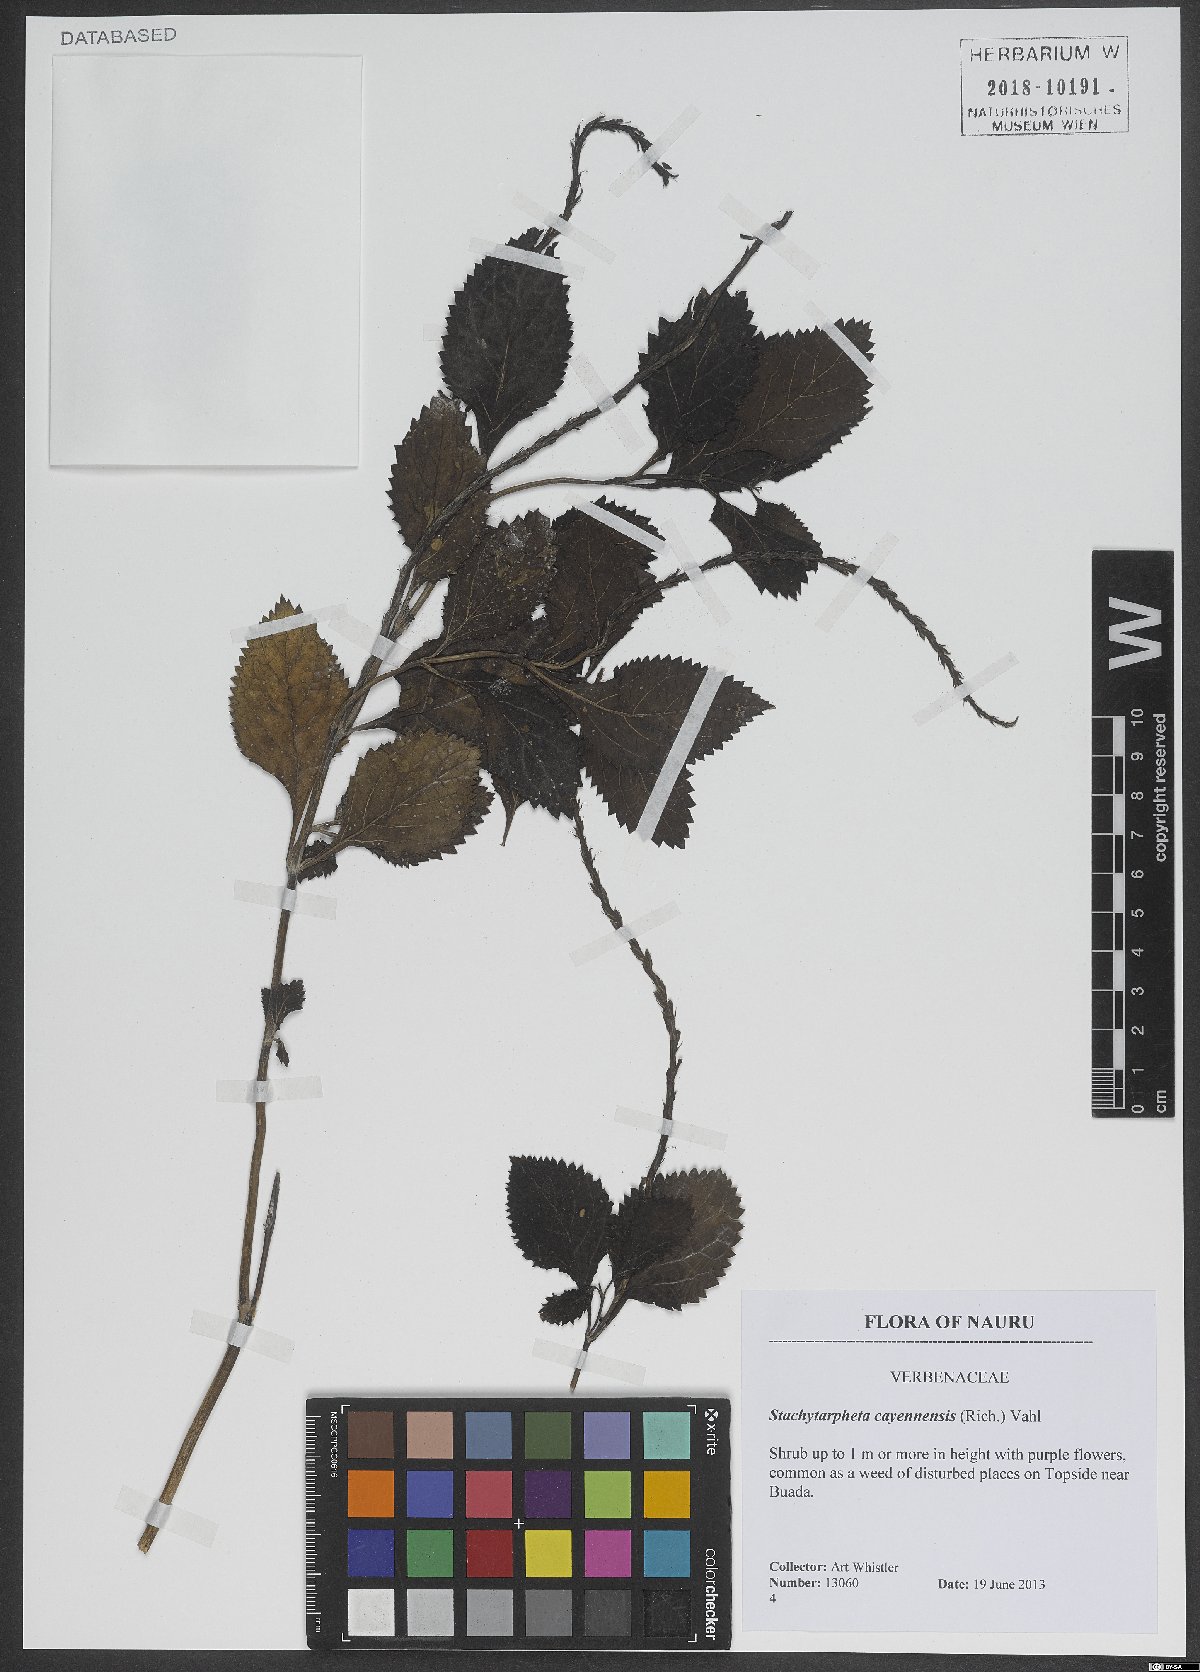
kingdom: Plantae
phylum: Tracheophyta
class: Magnoliopsida
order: Lamiales
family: Verbenaceae
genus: Stachytarpheta
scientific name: Stachytarpheta cayennensis
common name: Cayenne porterweed
